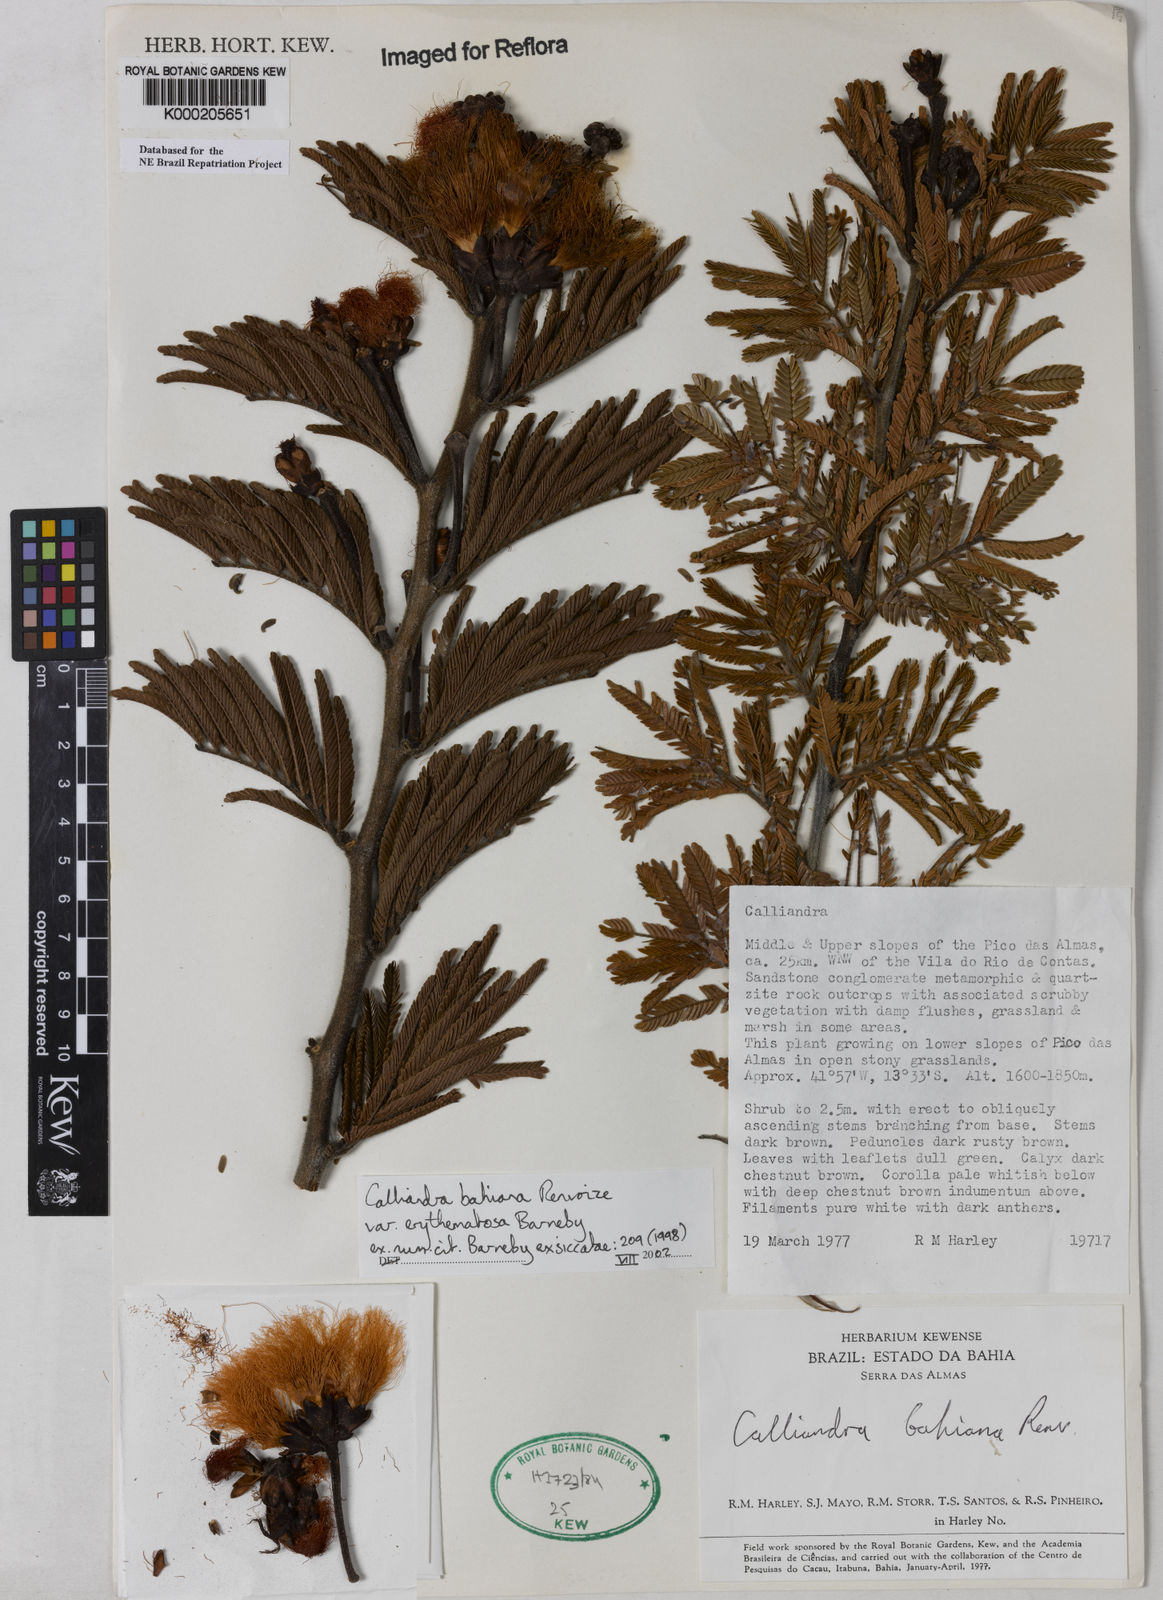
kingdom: Plantae
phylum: Tracheophyta
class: Magnoliopsida
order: Fabales
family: Fabaceae
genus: Calliandra
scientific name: Calliandra bahiana
